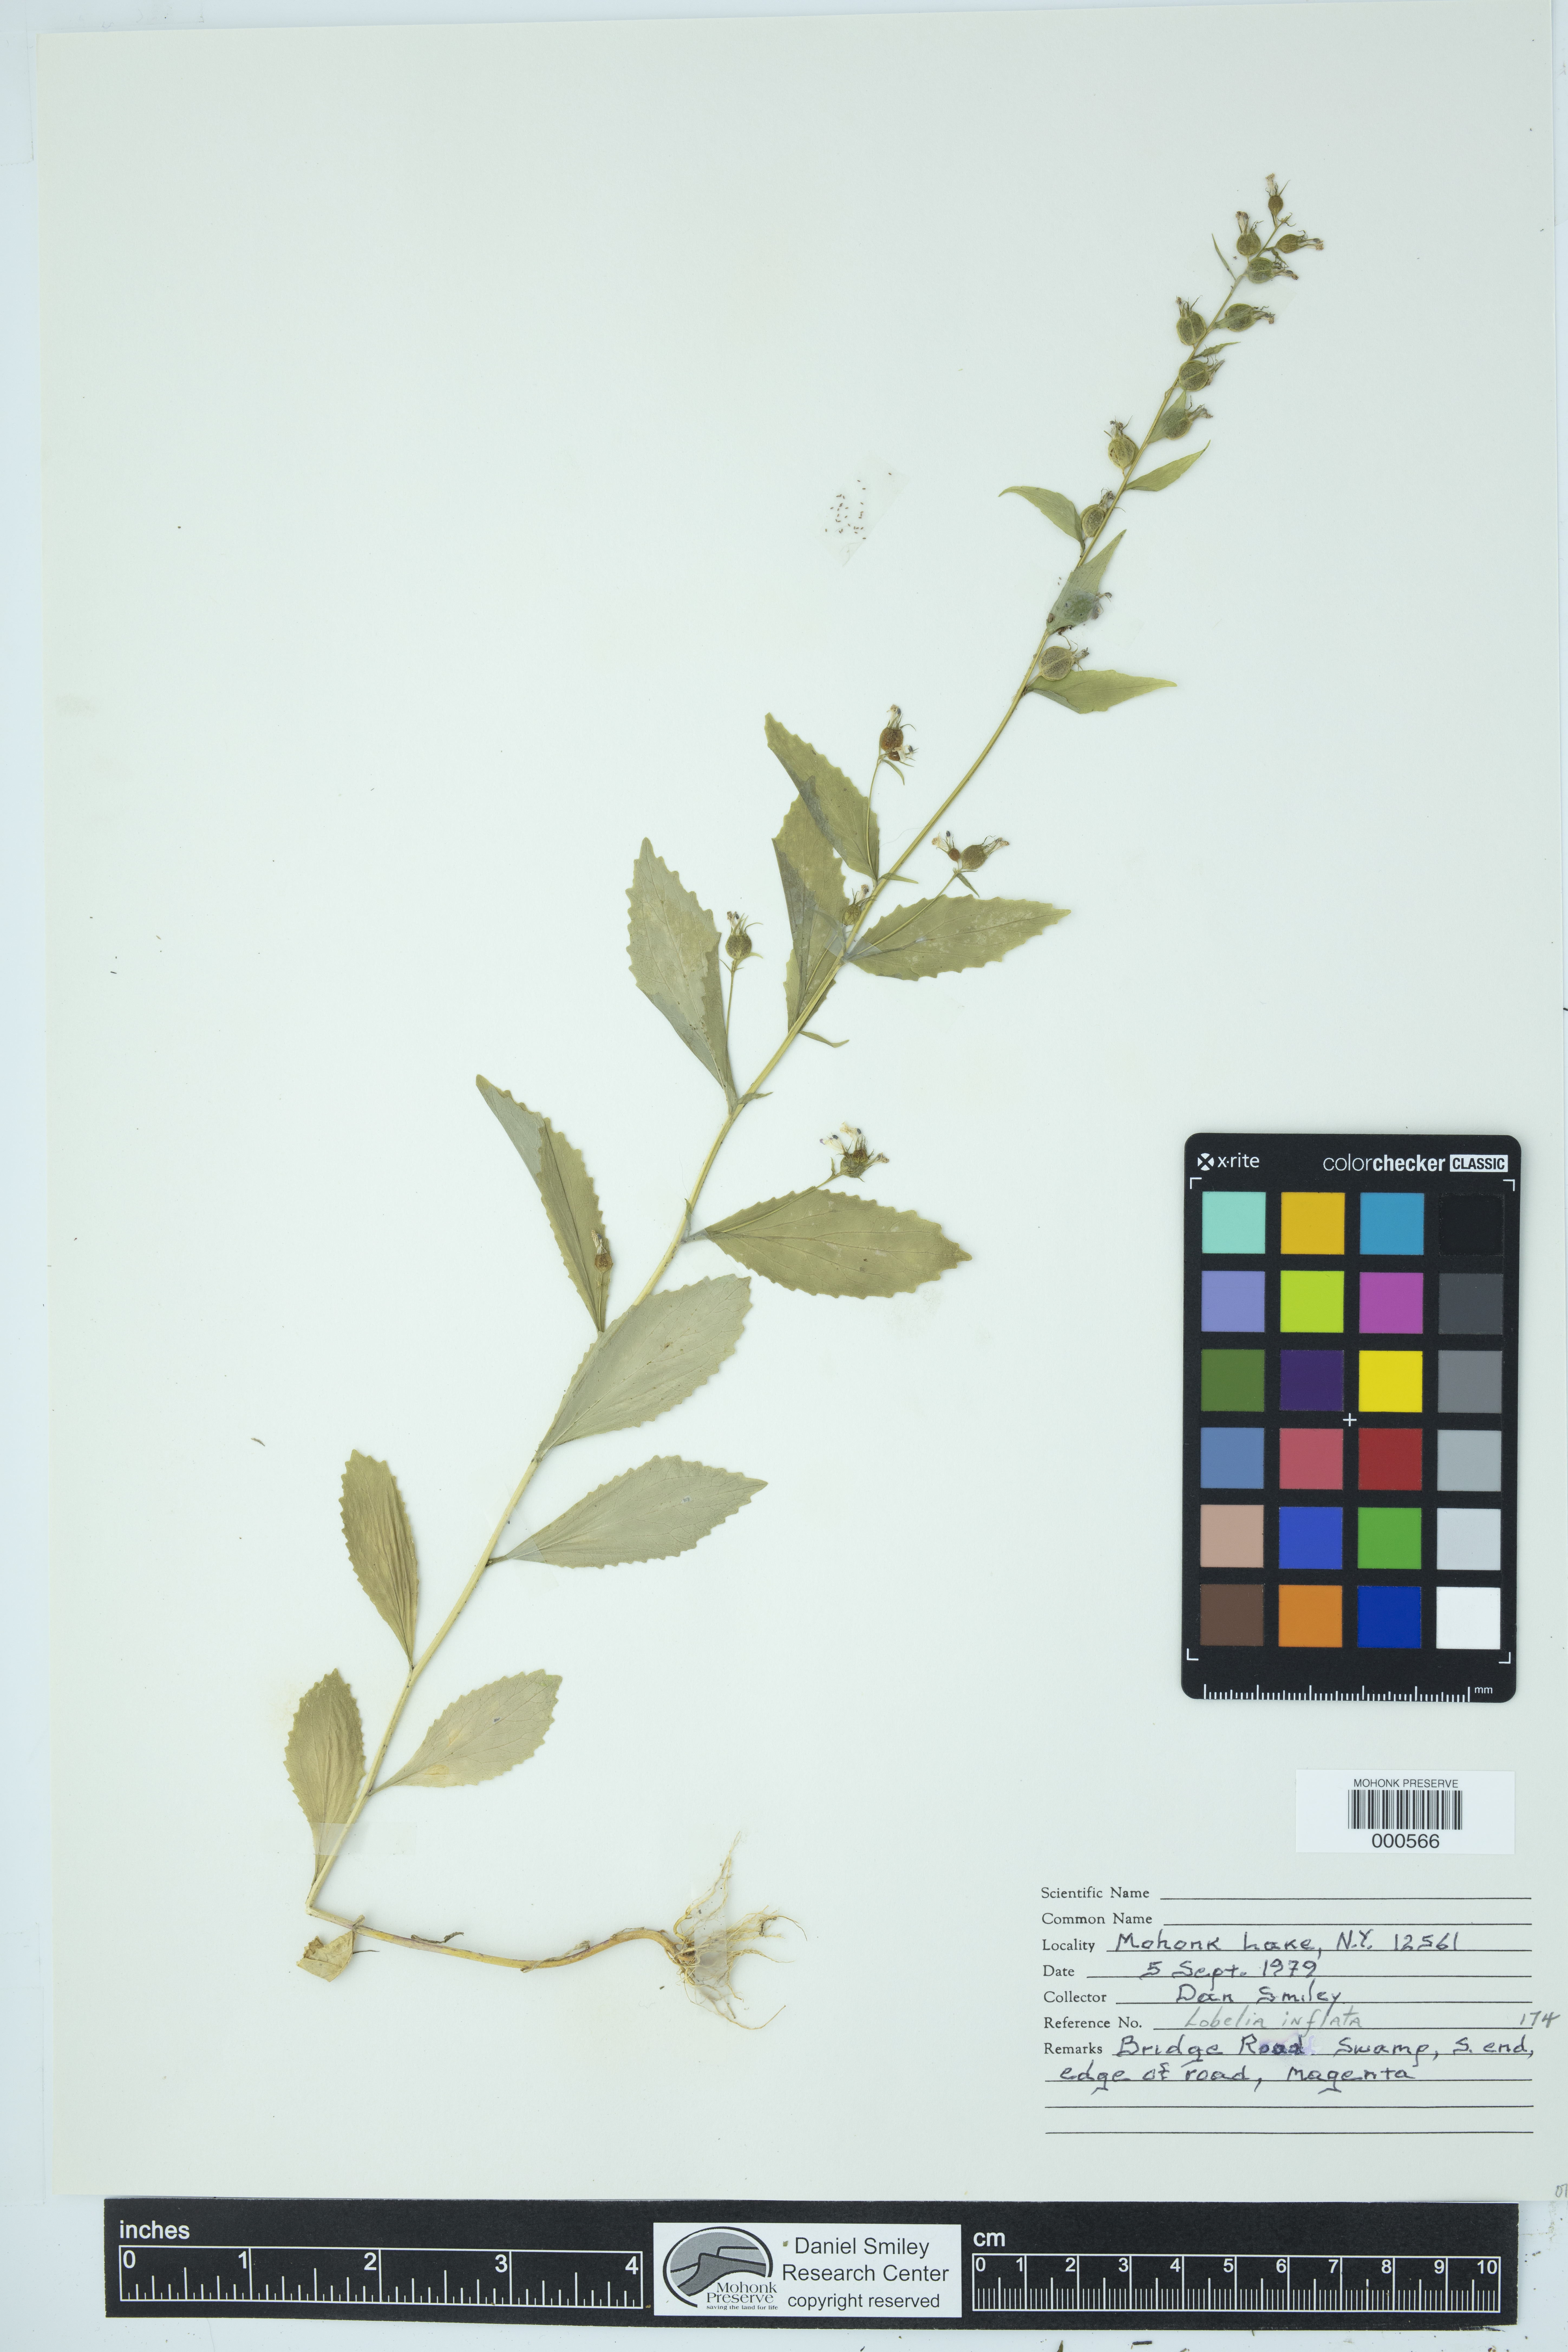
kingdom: Plantae
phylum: Tracheophyta
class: Magnoliopsida
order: Asterales
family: Campanulaceae
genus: Lobelia
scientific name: Lobelia inflata
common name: Indian tobacco
